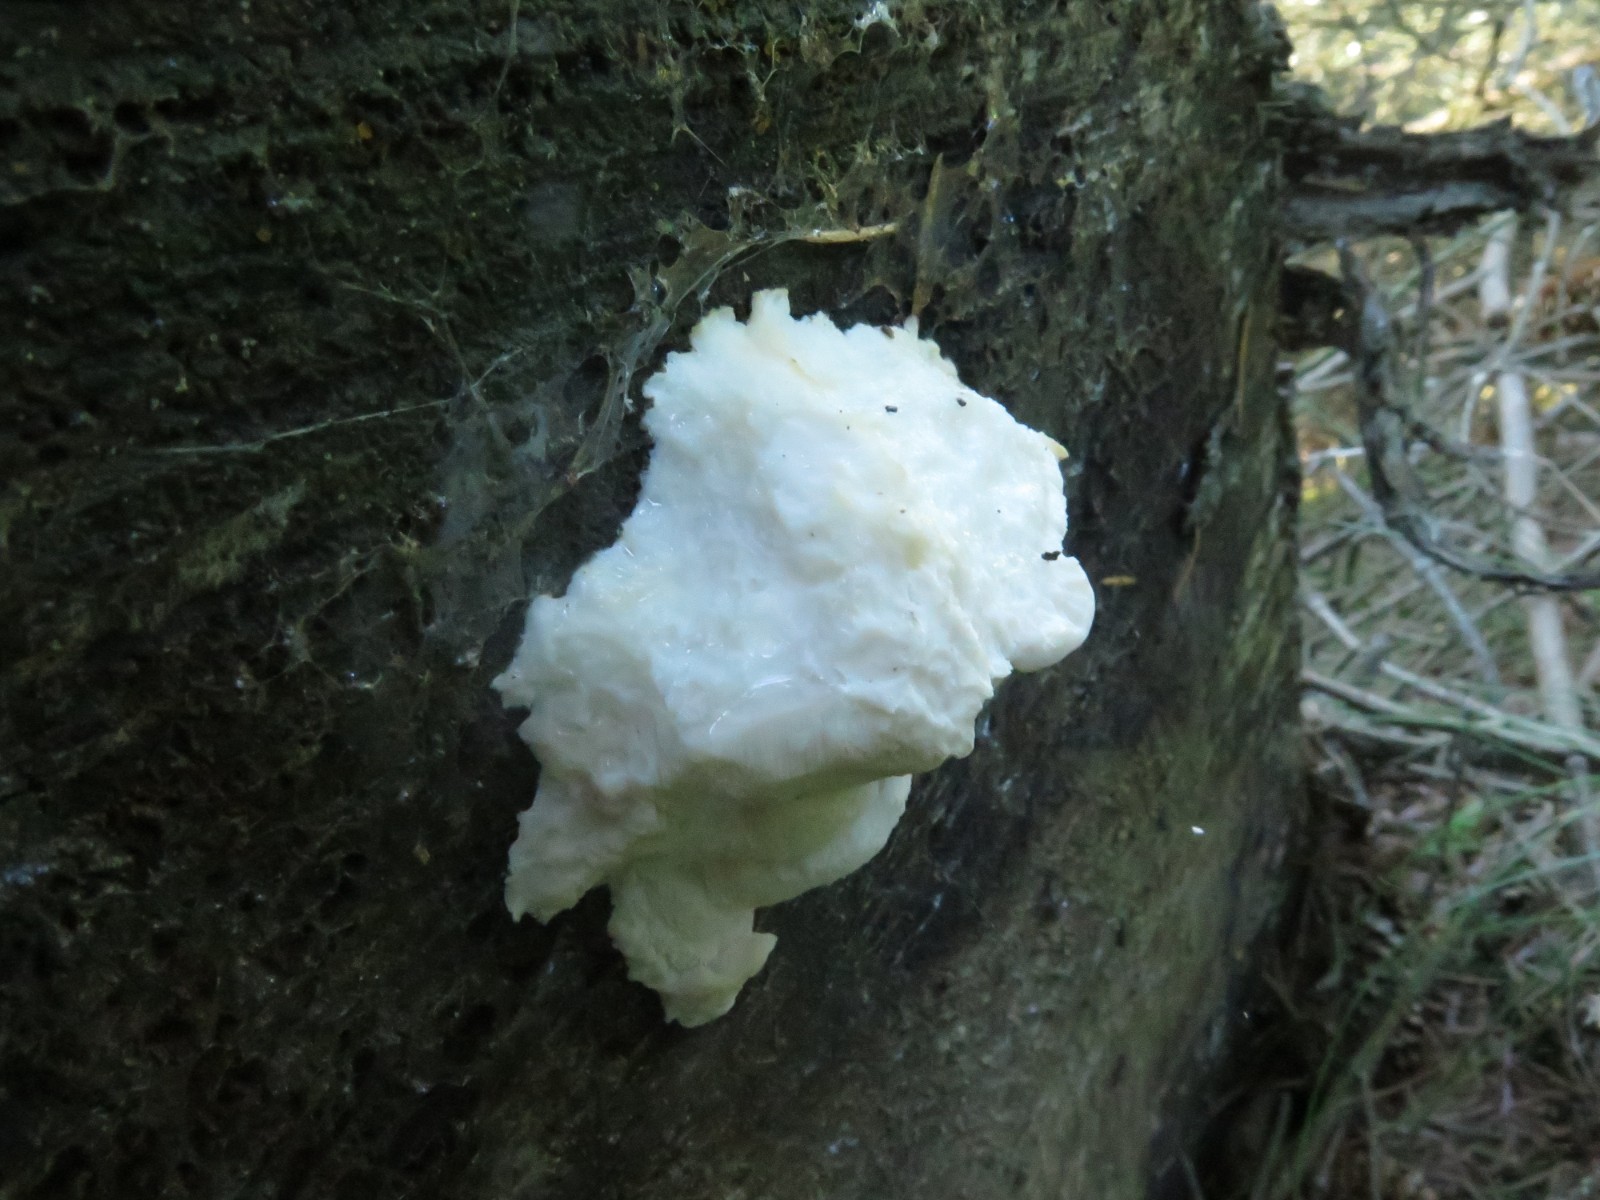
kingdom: Fungi
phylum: Basidiomycota
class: Agaricomycetes
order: Polyporales
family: Incrustoporiaceae
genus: Tyromyces
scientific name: Tyromyces lacteus
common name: mælkehvid kødporesvamp
